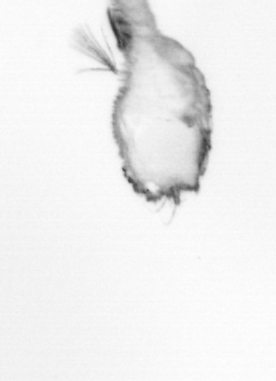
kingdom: Animalia
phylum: Arthropoda
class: Copepoda
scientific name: Copepoda
